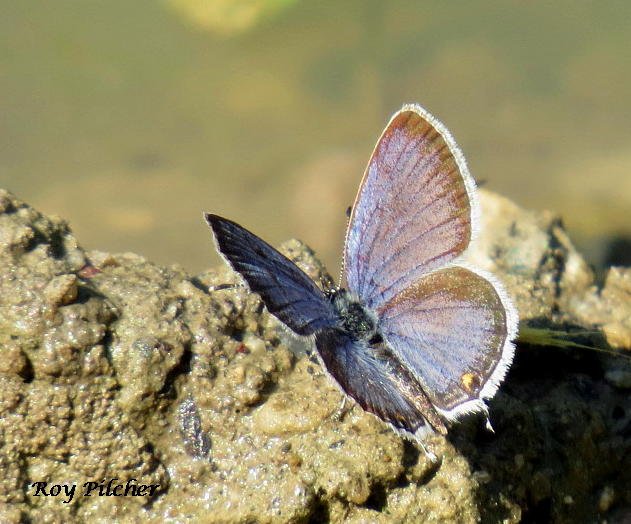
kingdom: Animalia
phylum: Arthropoda
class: Insecta
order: Lepidoptera
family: Lycaenidae
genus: Elkalyce
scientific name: Elkalyce comyntas
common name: Eastern Tailed-Blue
